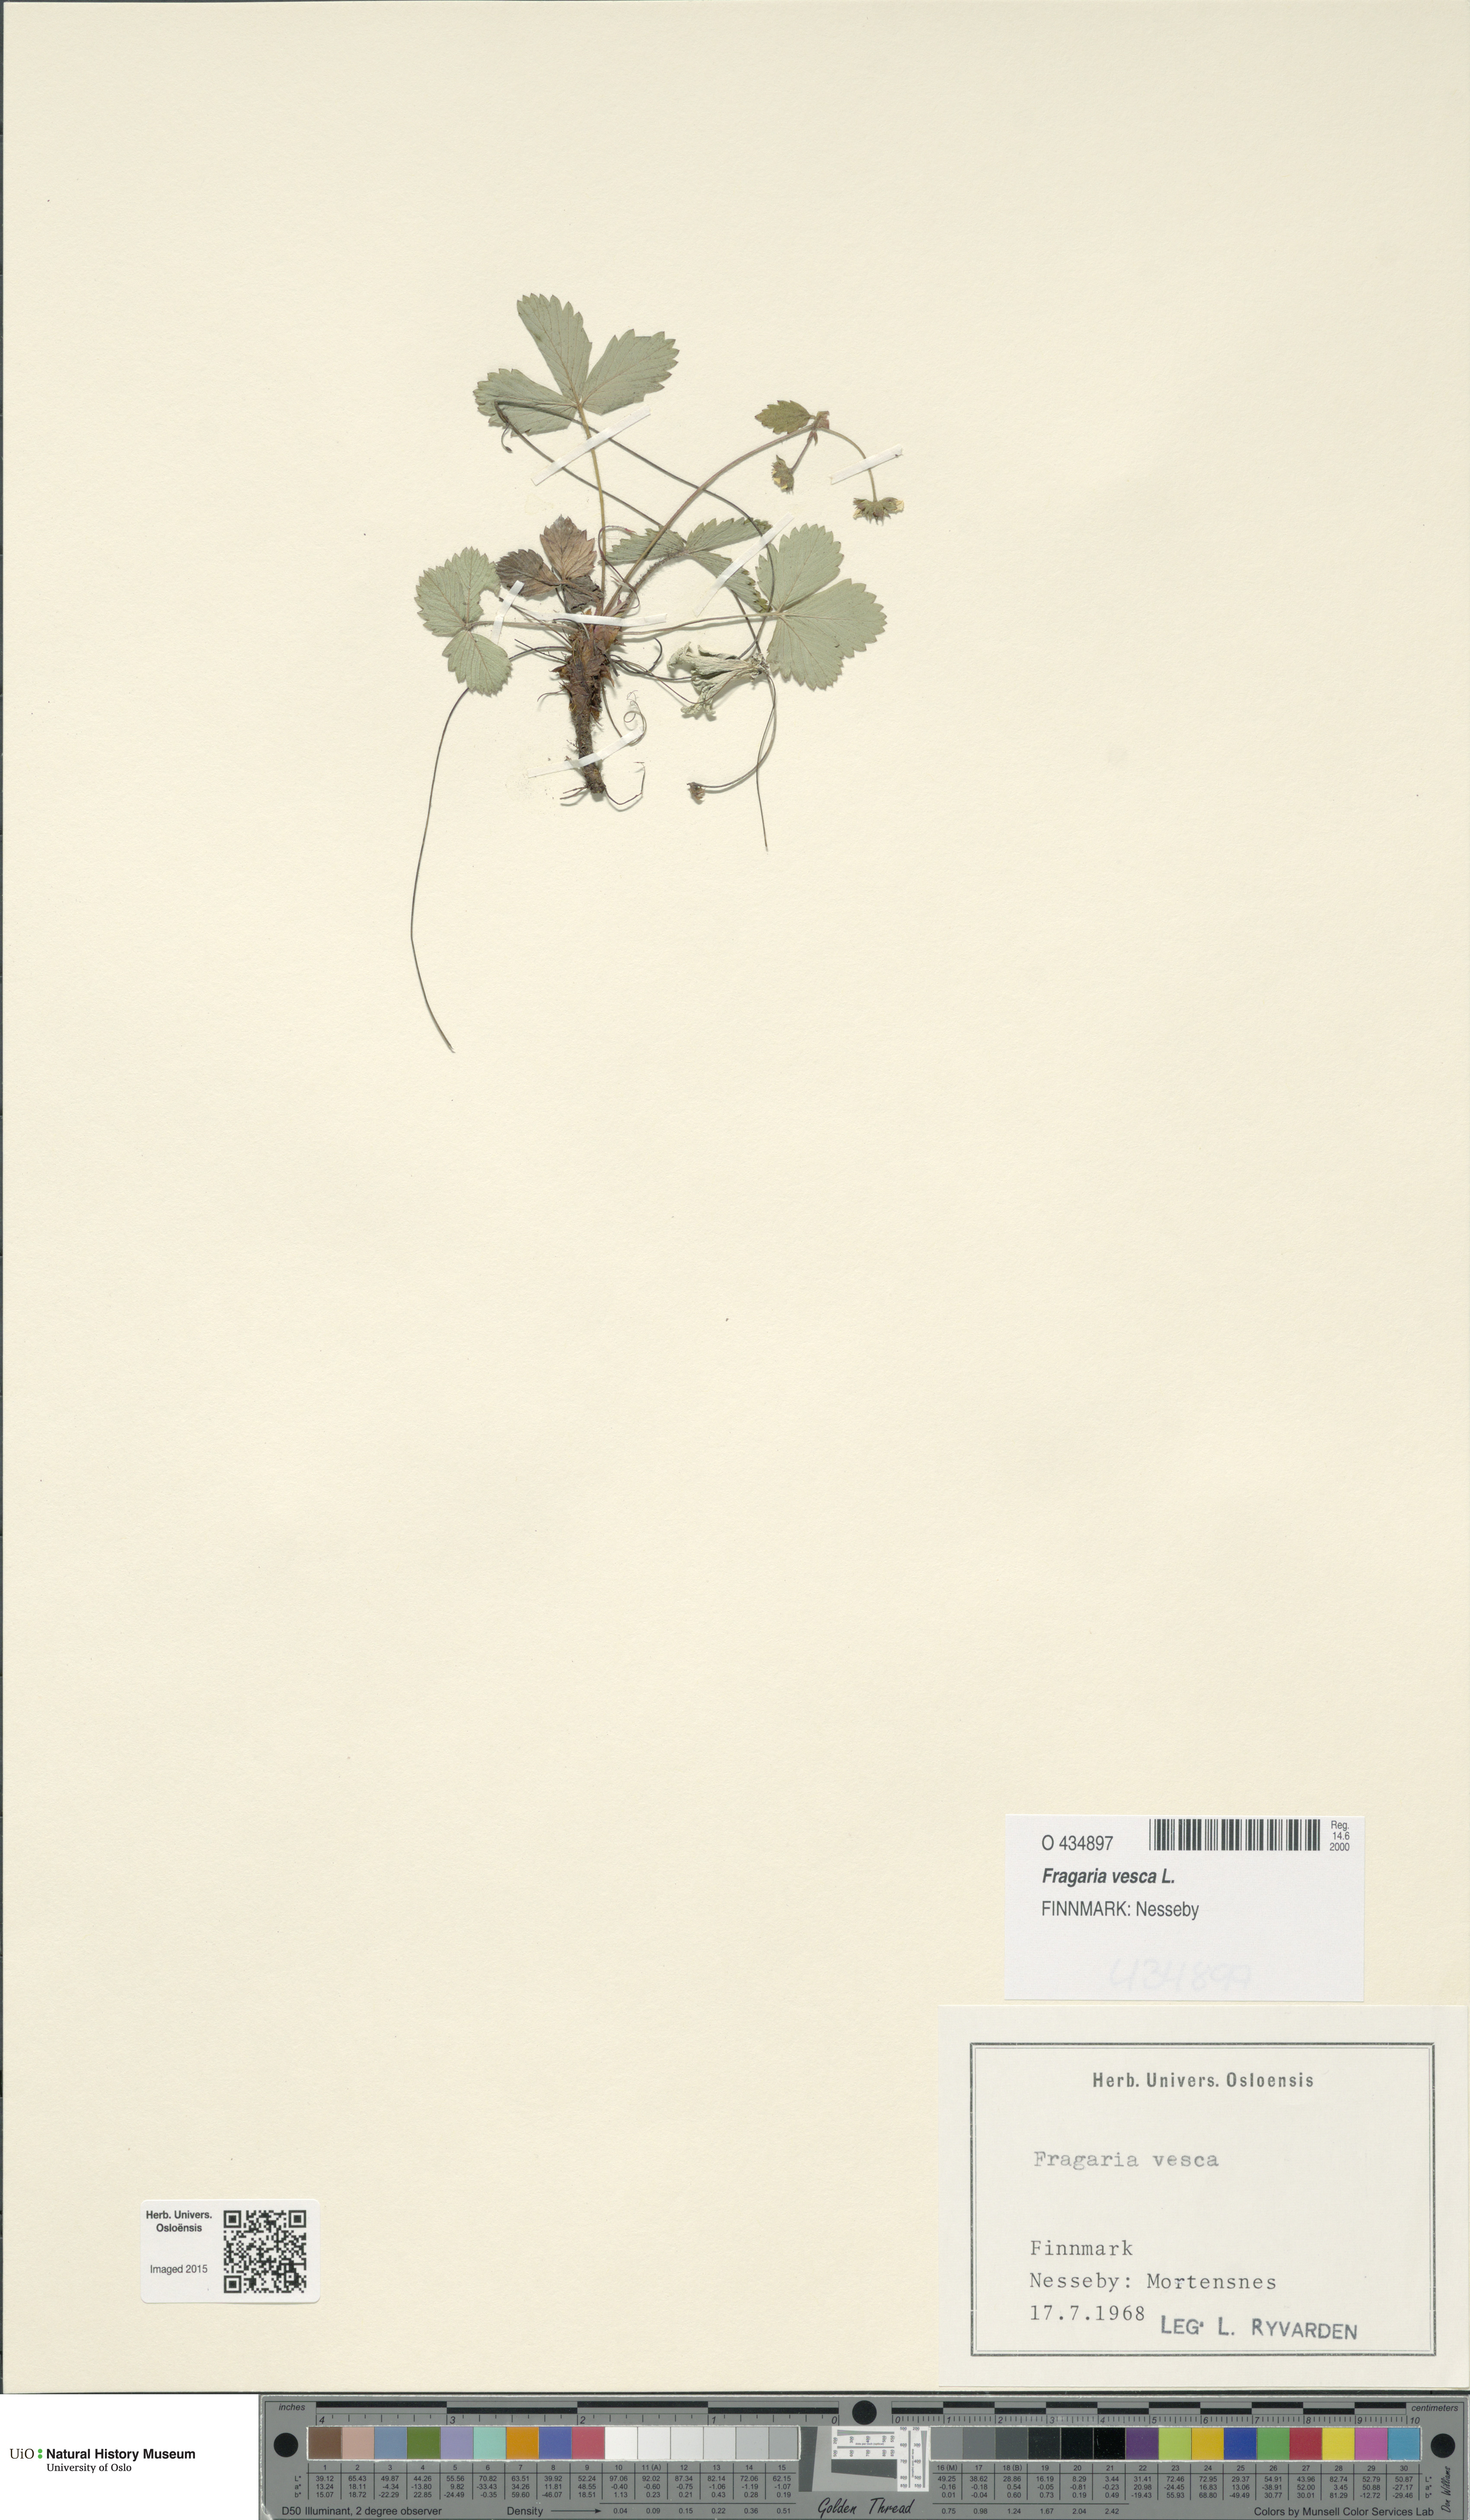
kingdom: Plantae
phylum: Tracheophyta
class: Magnoliopsida
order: Rosales
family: Rosaceae
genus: Fragaria
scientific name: Fragaria vesca
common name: Wild strawberry
